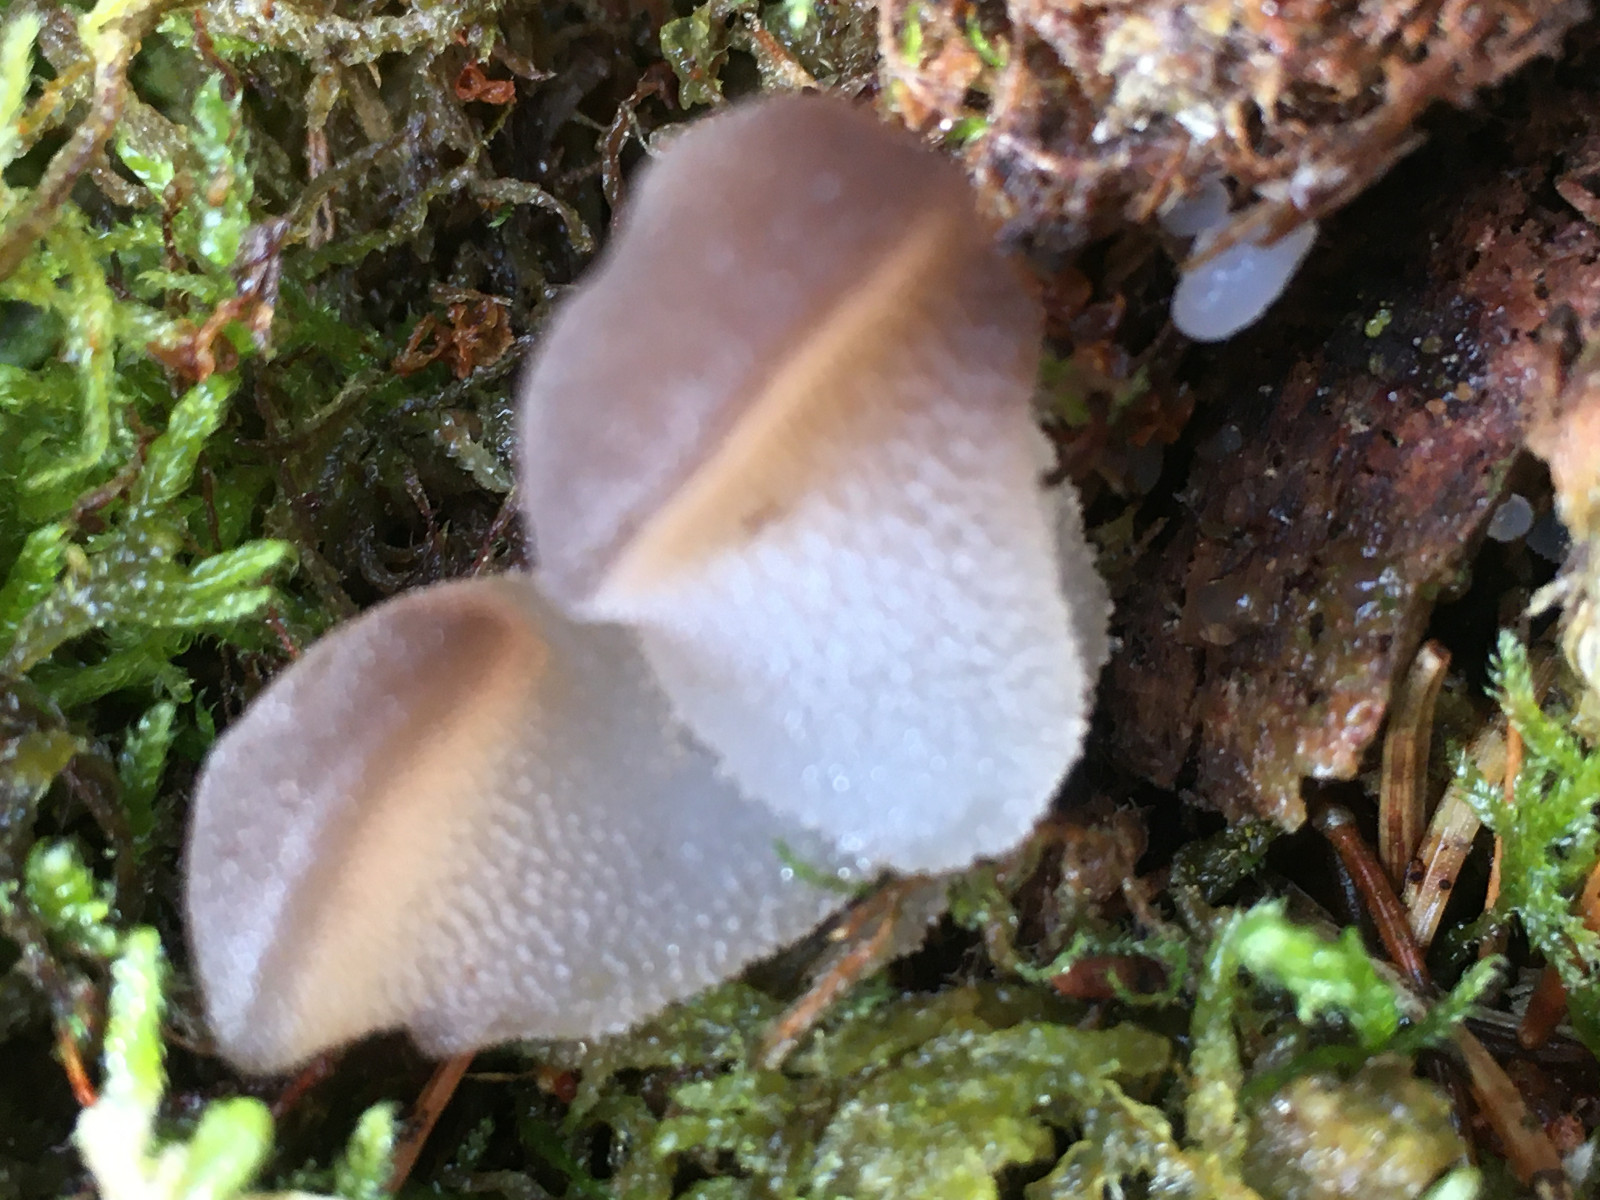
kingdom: Fungi
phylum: Basidiomycota
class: Agaricomycetes
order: Auriculariales
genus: Pseudohydnum
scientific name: Pseudohydnum gelatinosum
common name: bævretand
